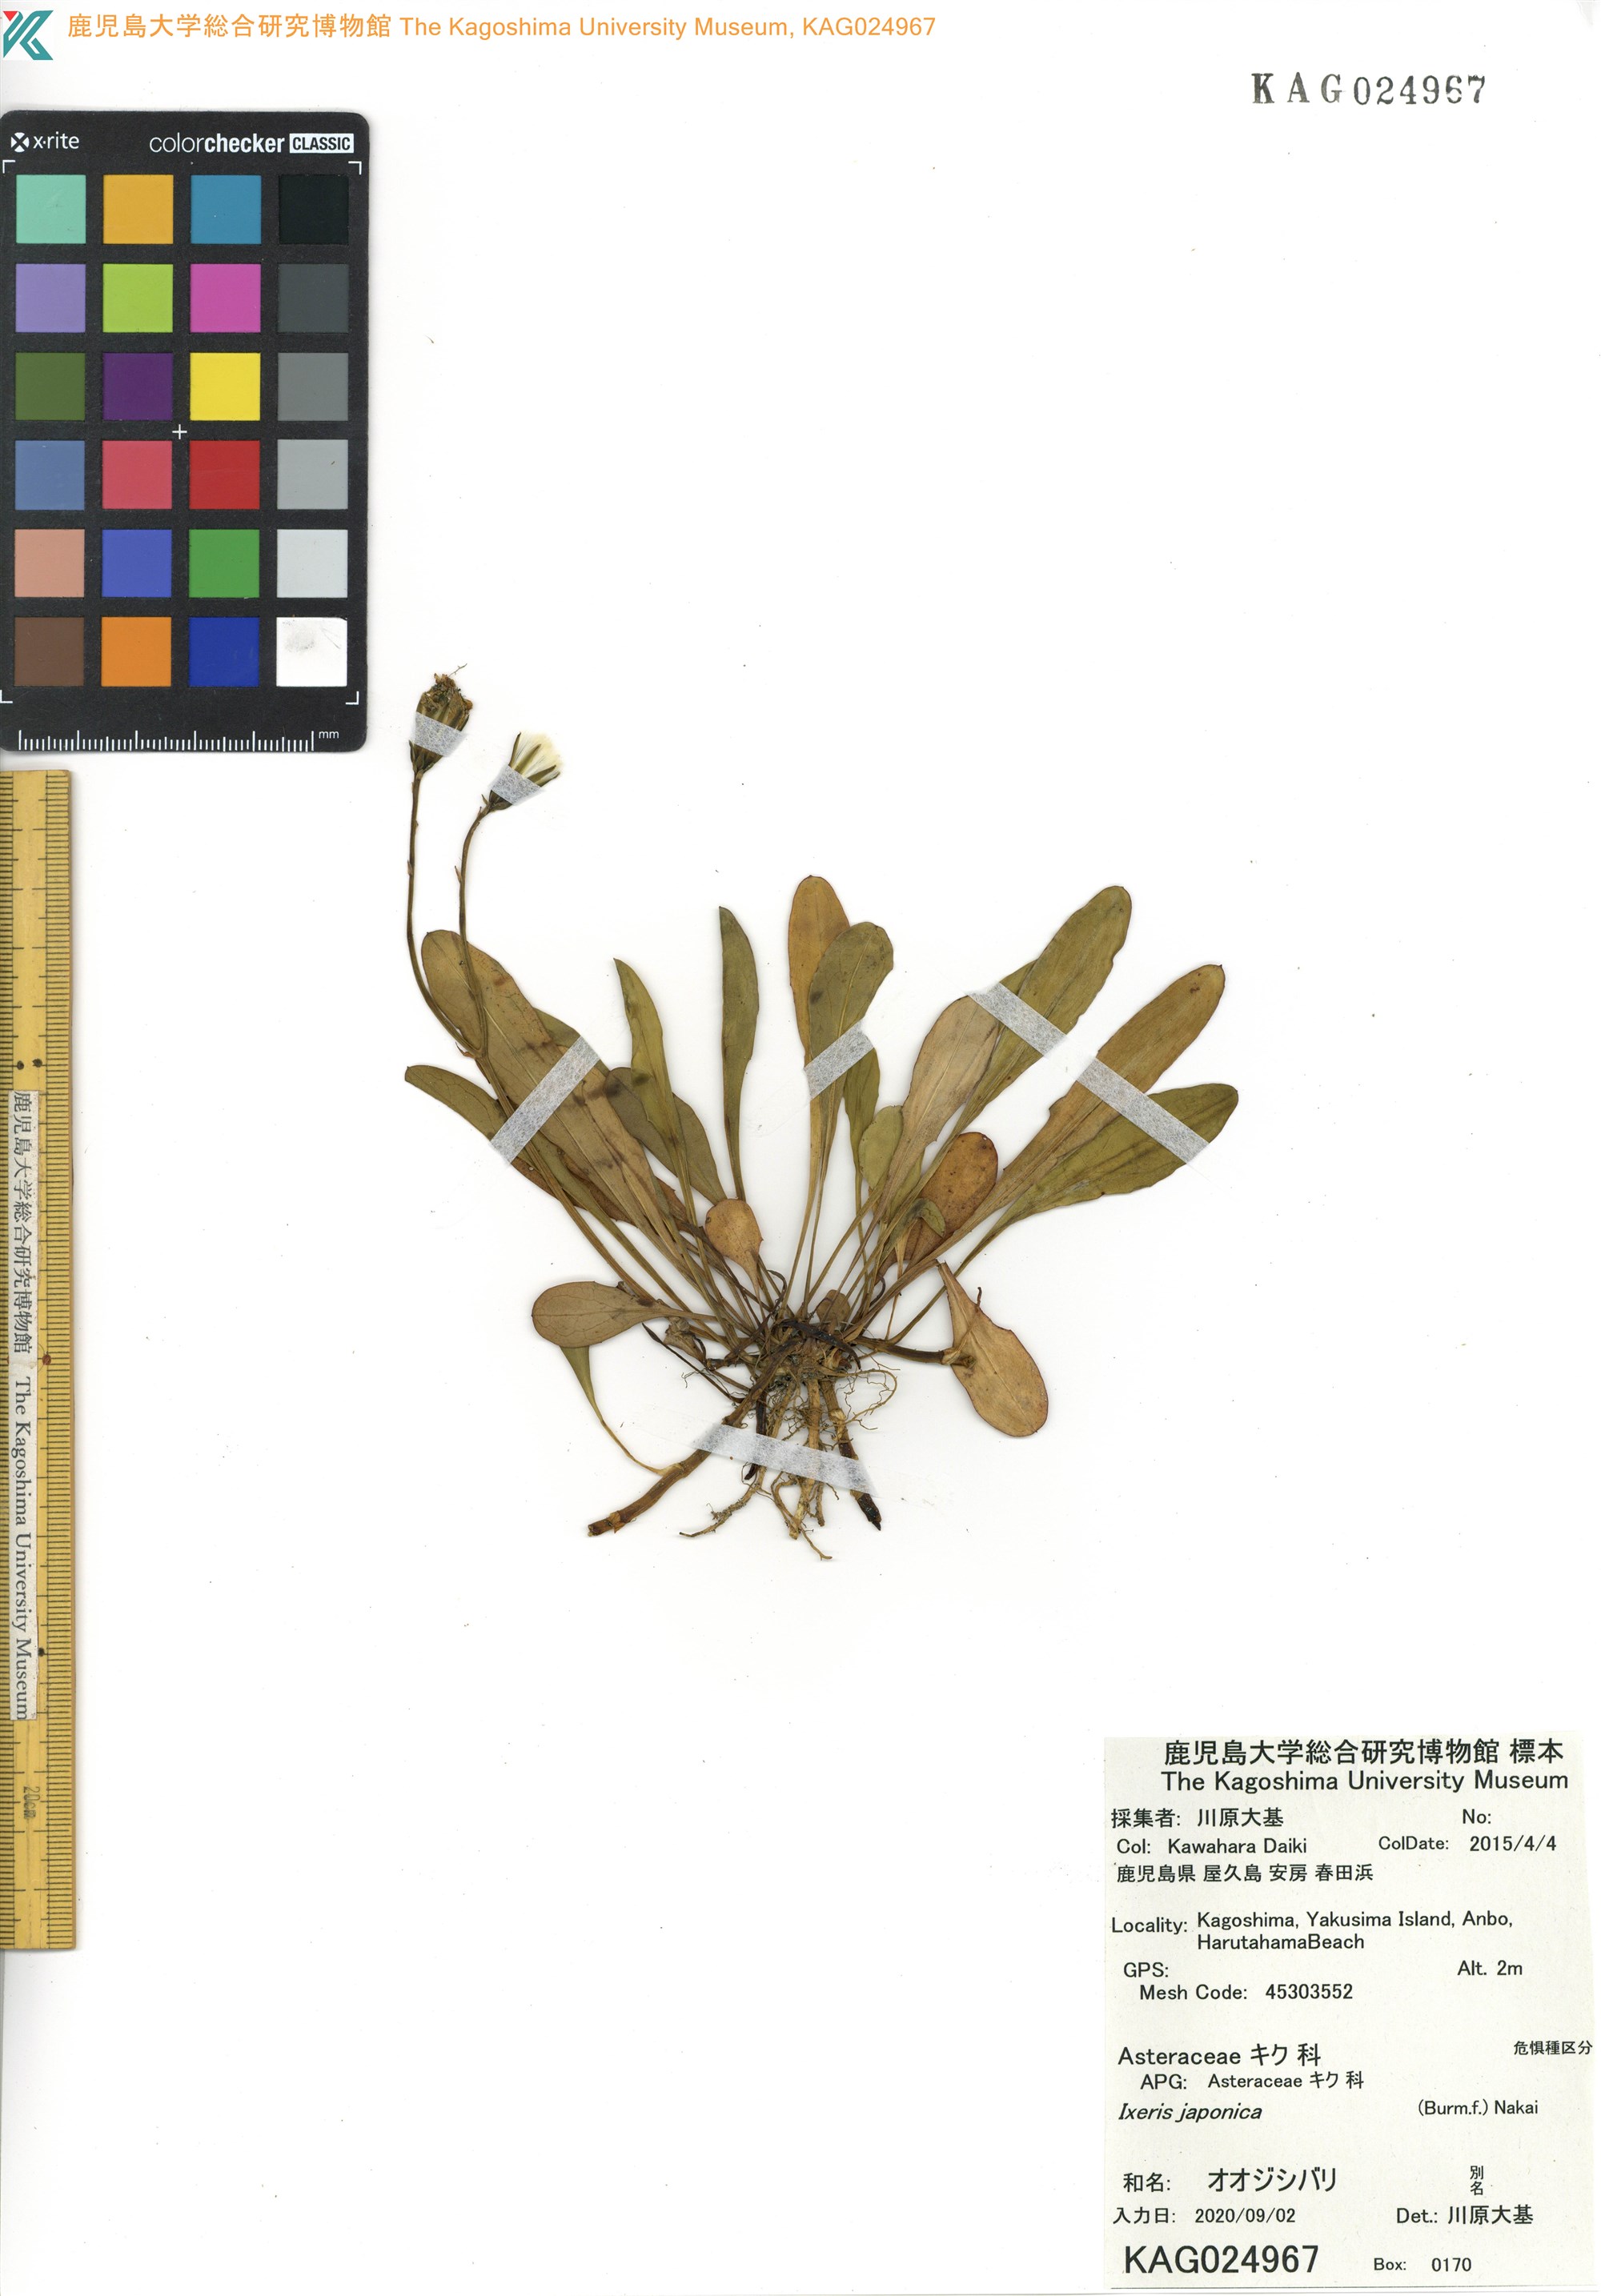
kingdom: Plantae
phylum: Tracheophyta
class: Magnoliopsida
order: Asterales
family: Asteraceae
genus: Ixeris
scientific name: Ixeris japonica
